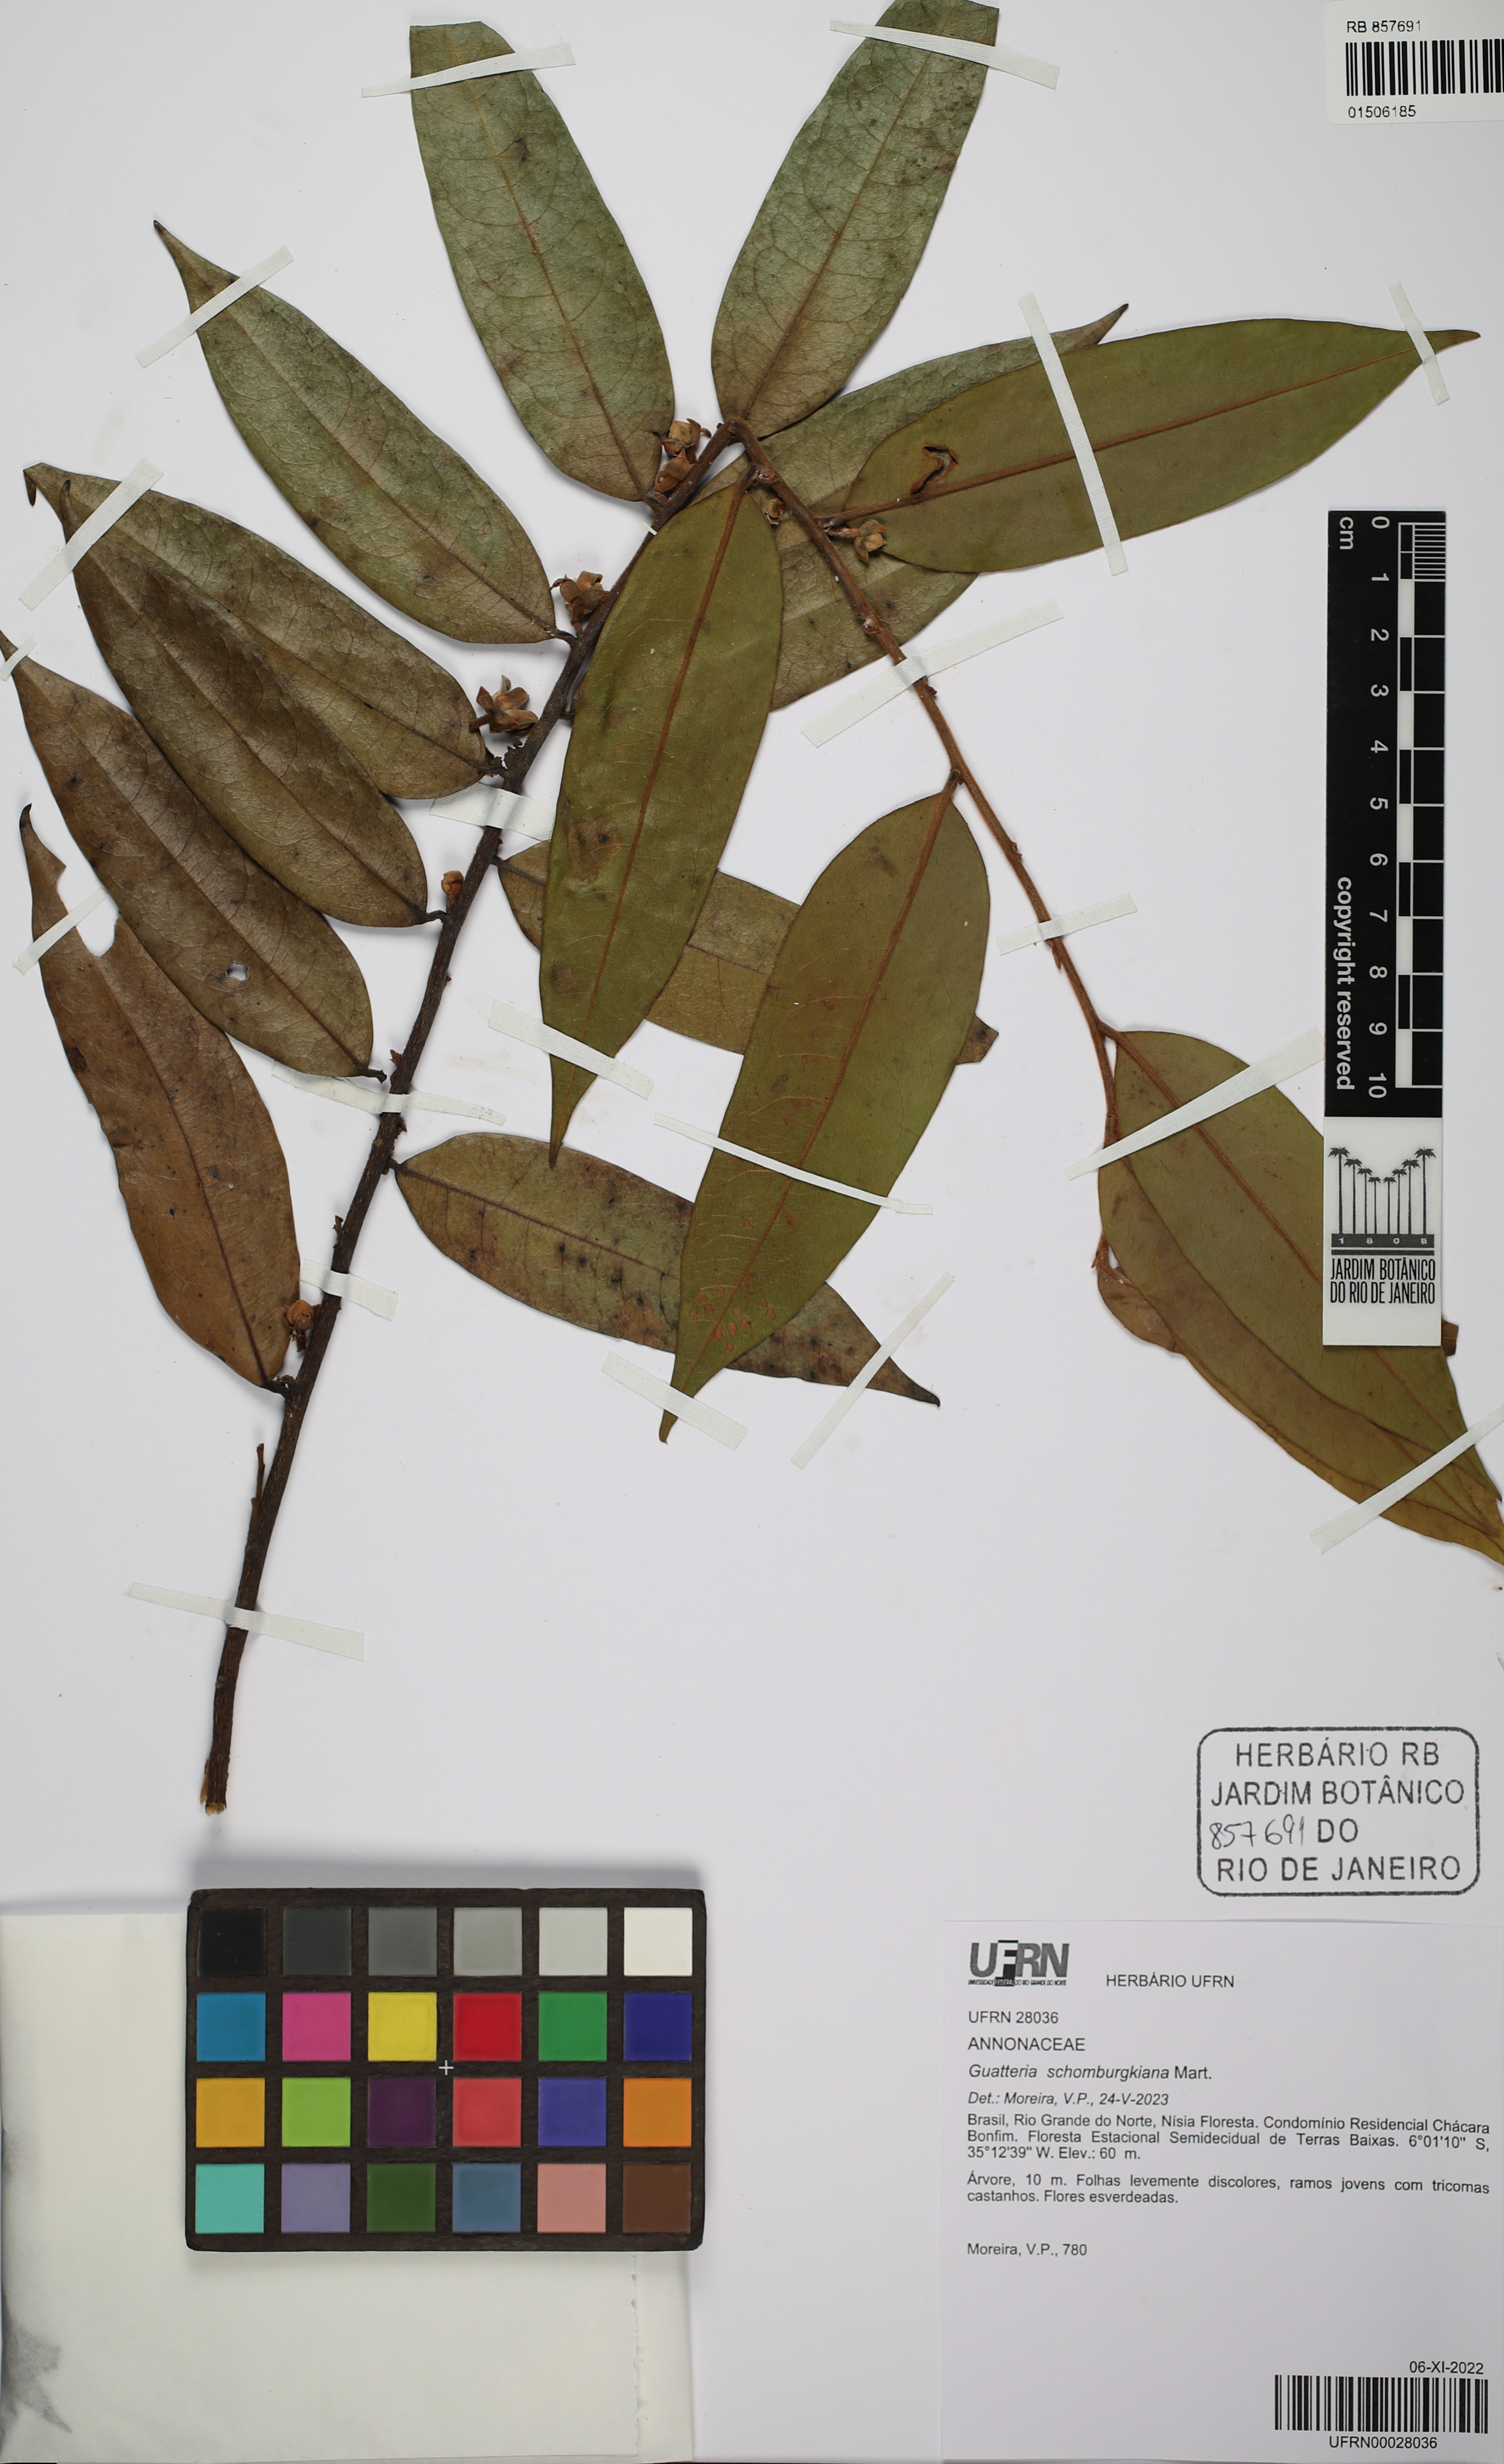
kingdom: Plantae
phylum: Tracheophyta
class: Magnoliopsida
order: Magnoliales
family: Annonaceae
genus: Guatteria
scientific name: Guatteria pogonopus
